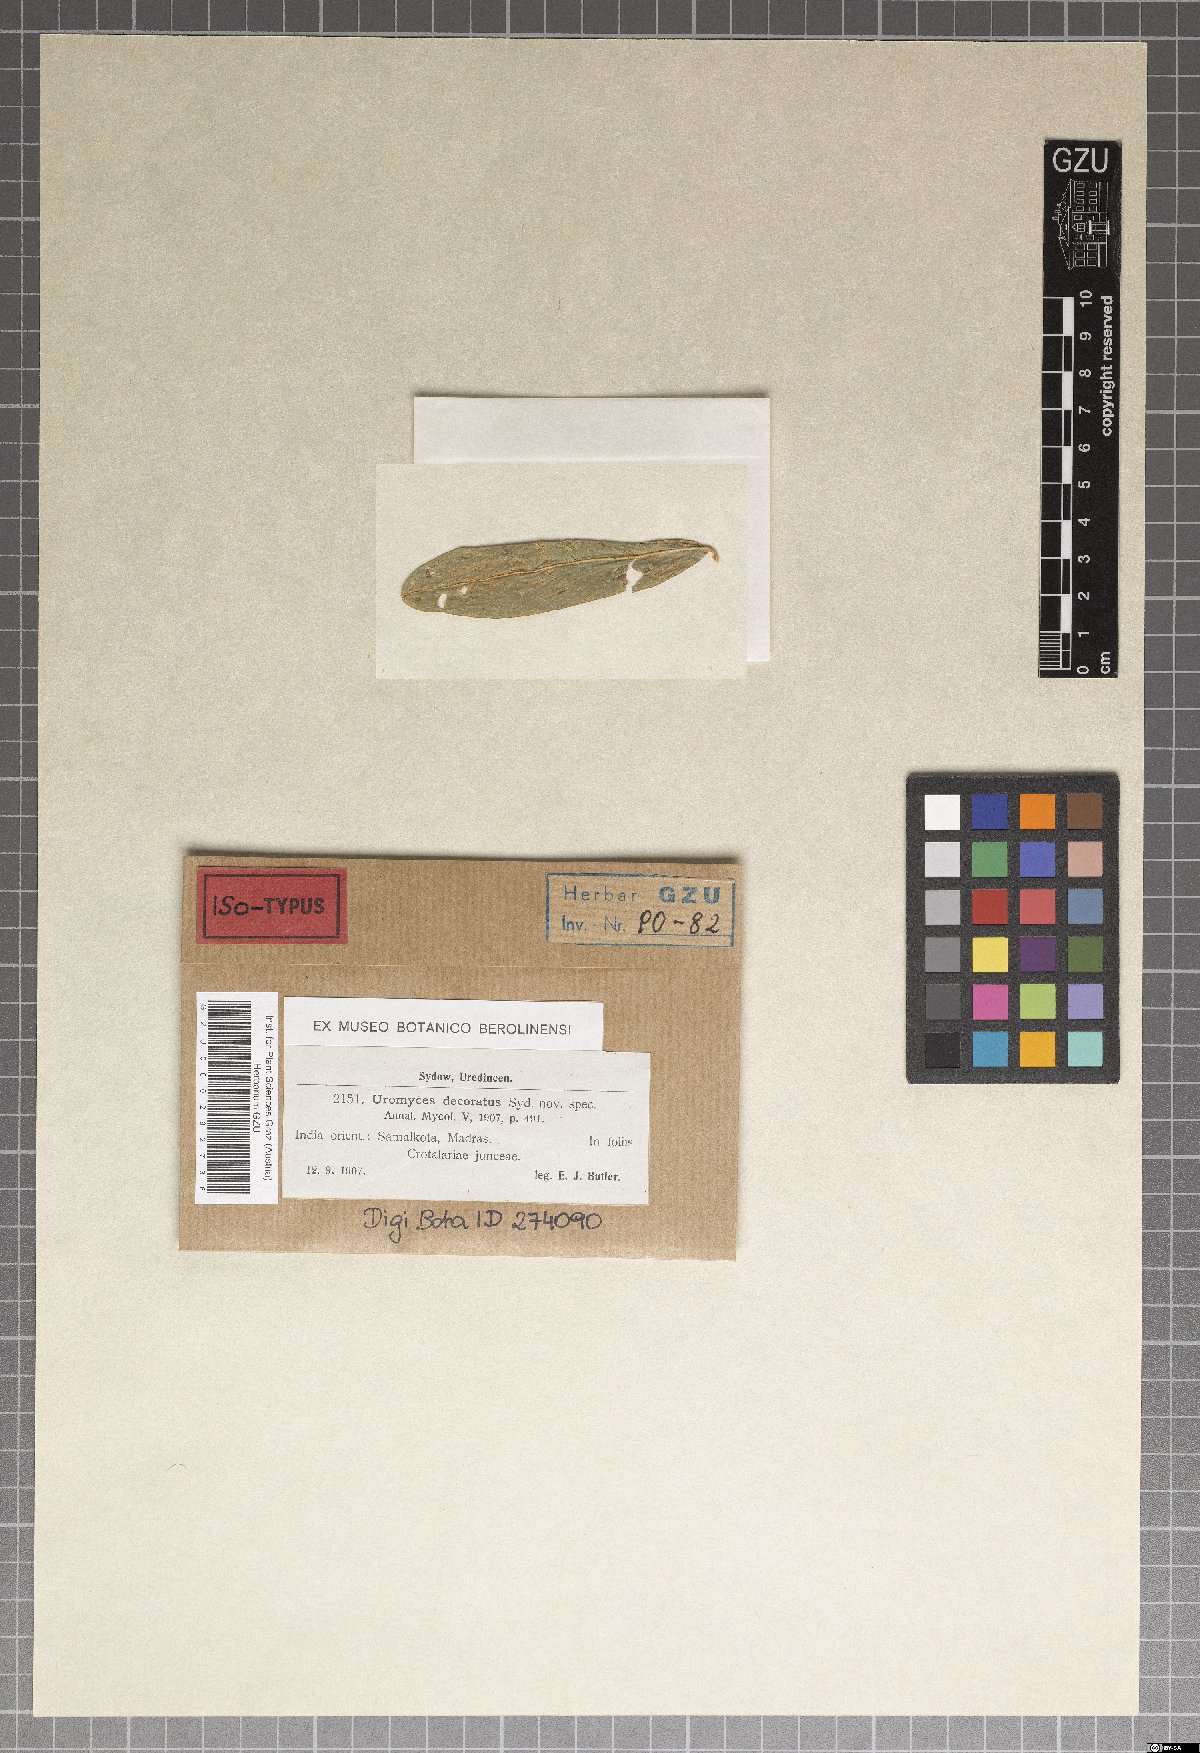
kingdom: Fungi
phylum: Basidiomycota
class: Pucciniomycetes
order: Pucciniales
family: Pucciniaceae
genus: Uromyces
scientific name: Uromyces decoratus
